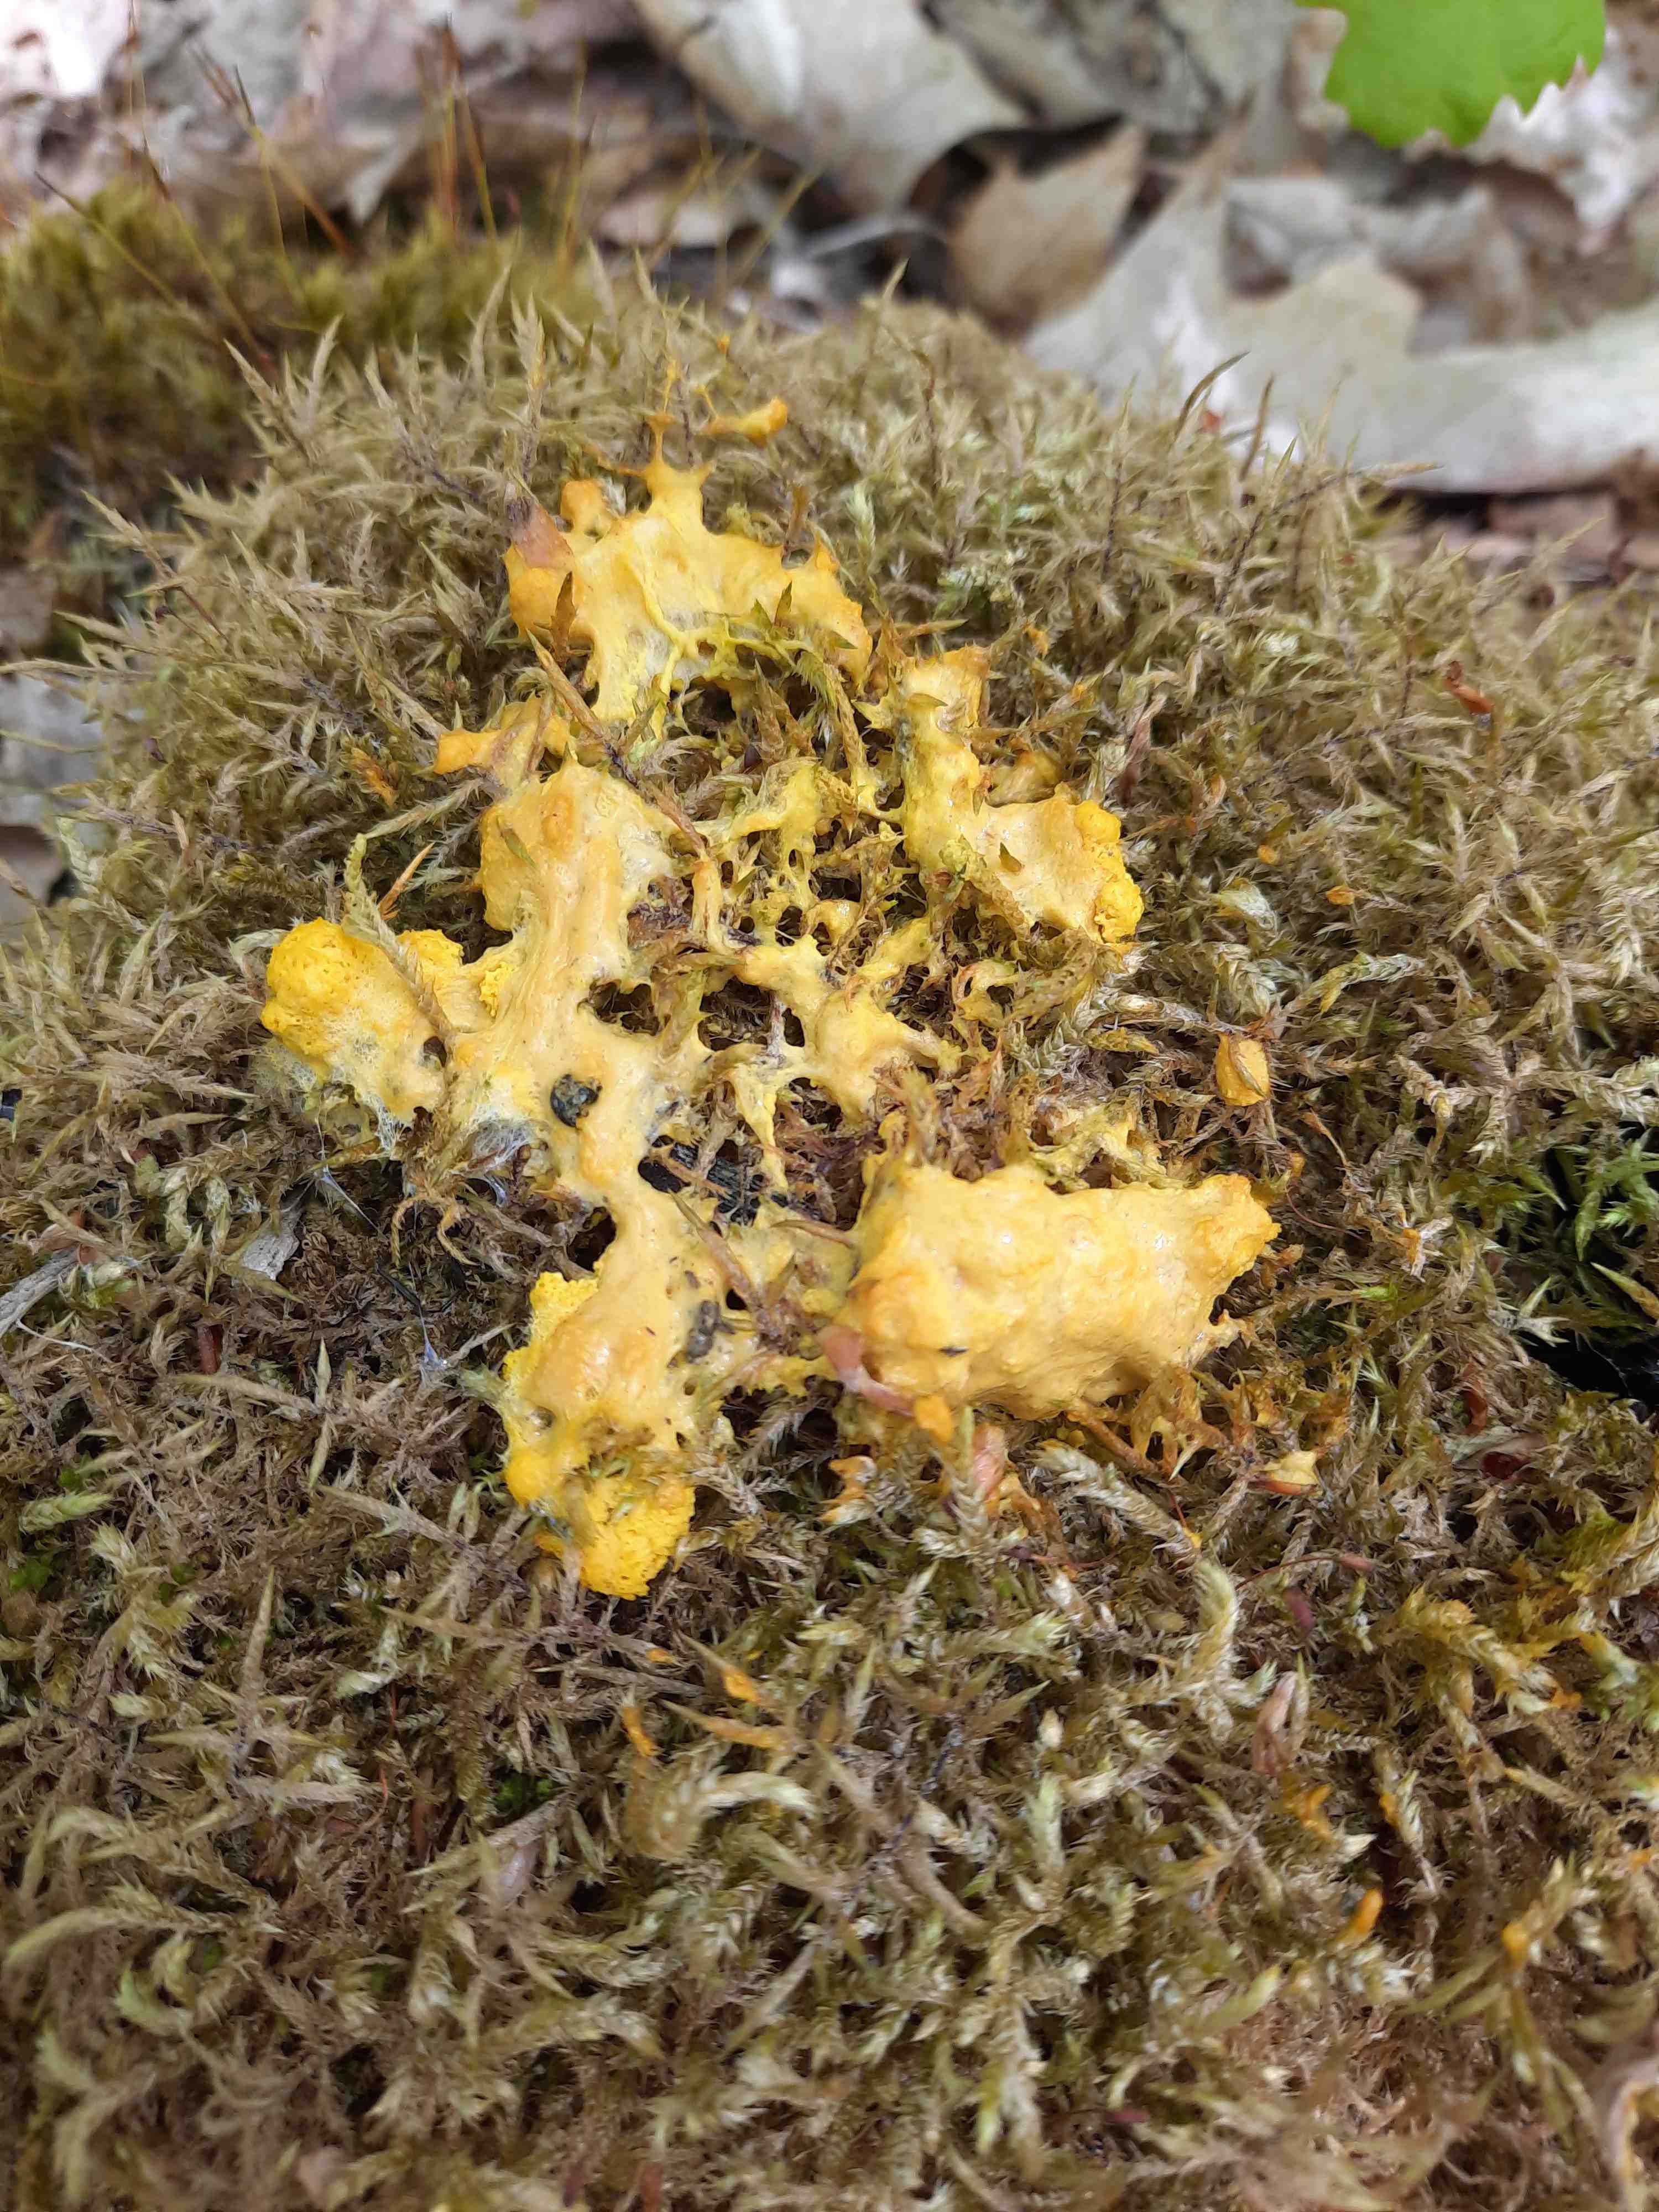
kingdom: Protozoa
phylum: Mycetozoa
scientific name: Mycetozoa
